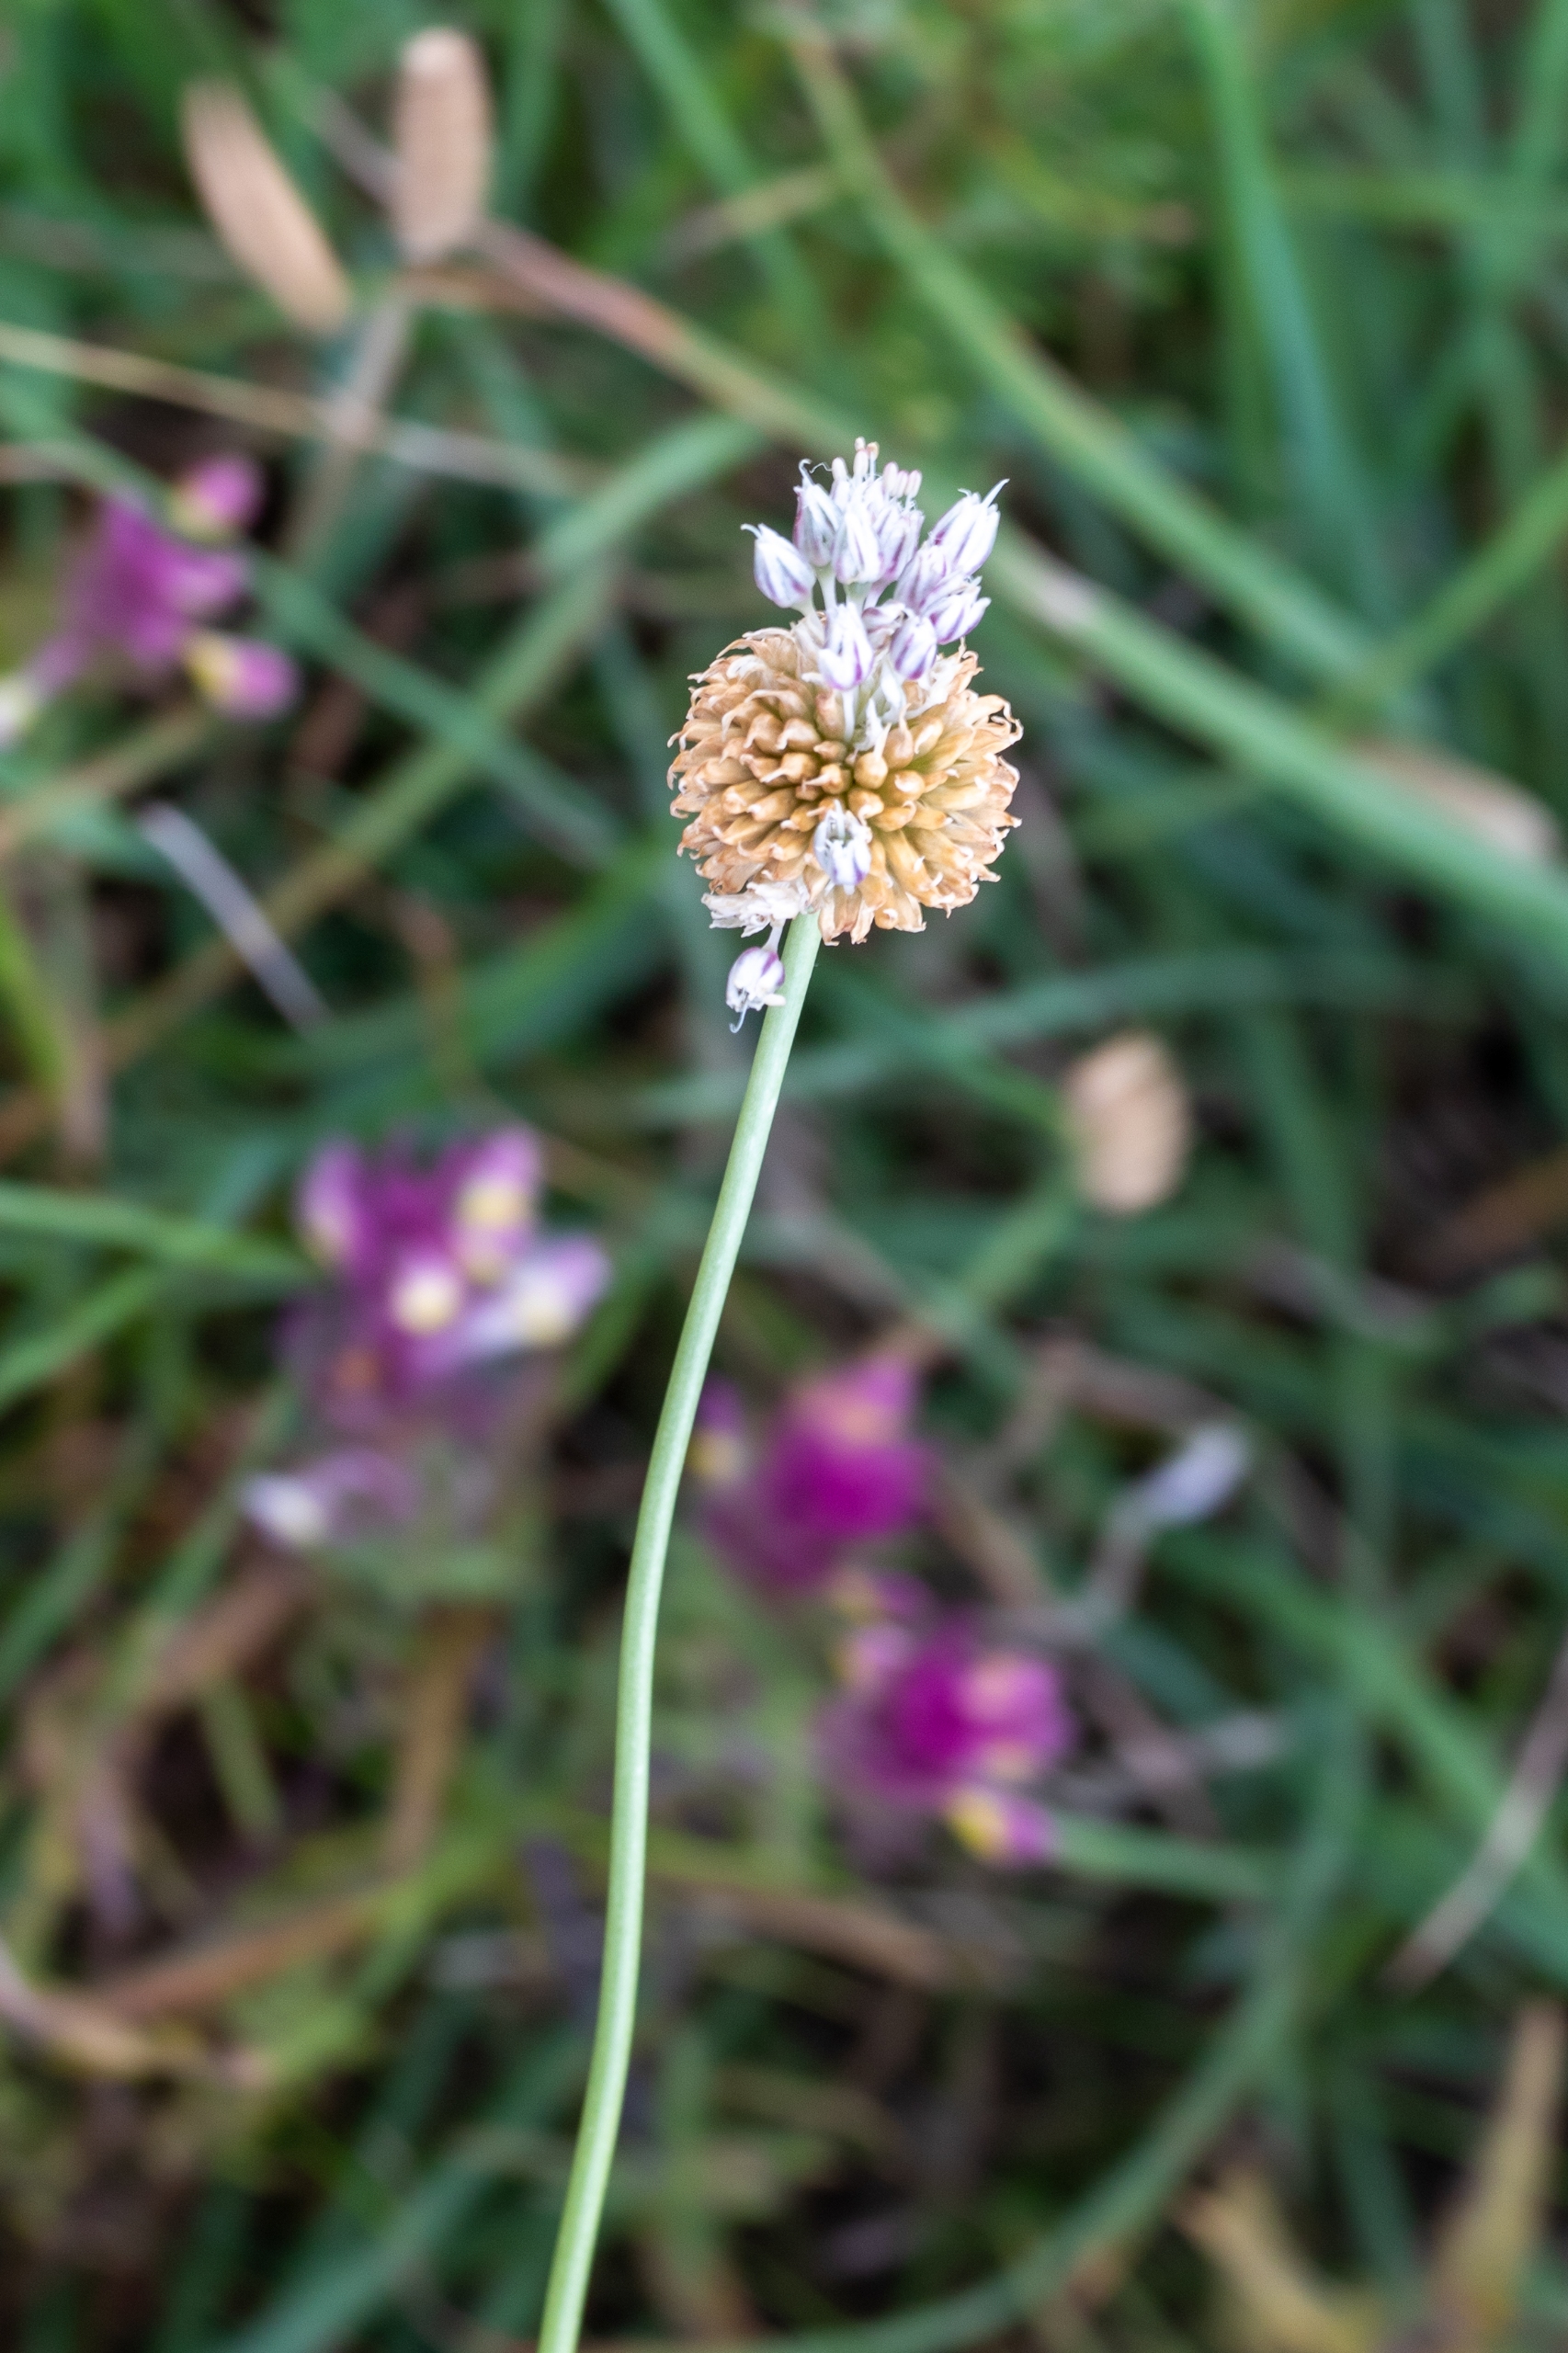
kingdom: Plantae
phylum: Tracheophyta
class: Liliopsida
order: Asparagales
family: Amaryllidaceae
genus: Allium
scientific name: Allium vineale
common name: Sand-løg
